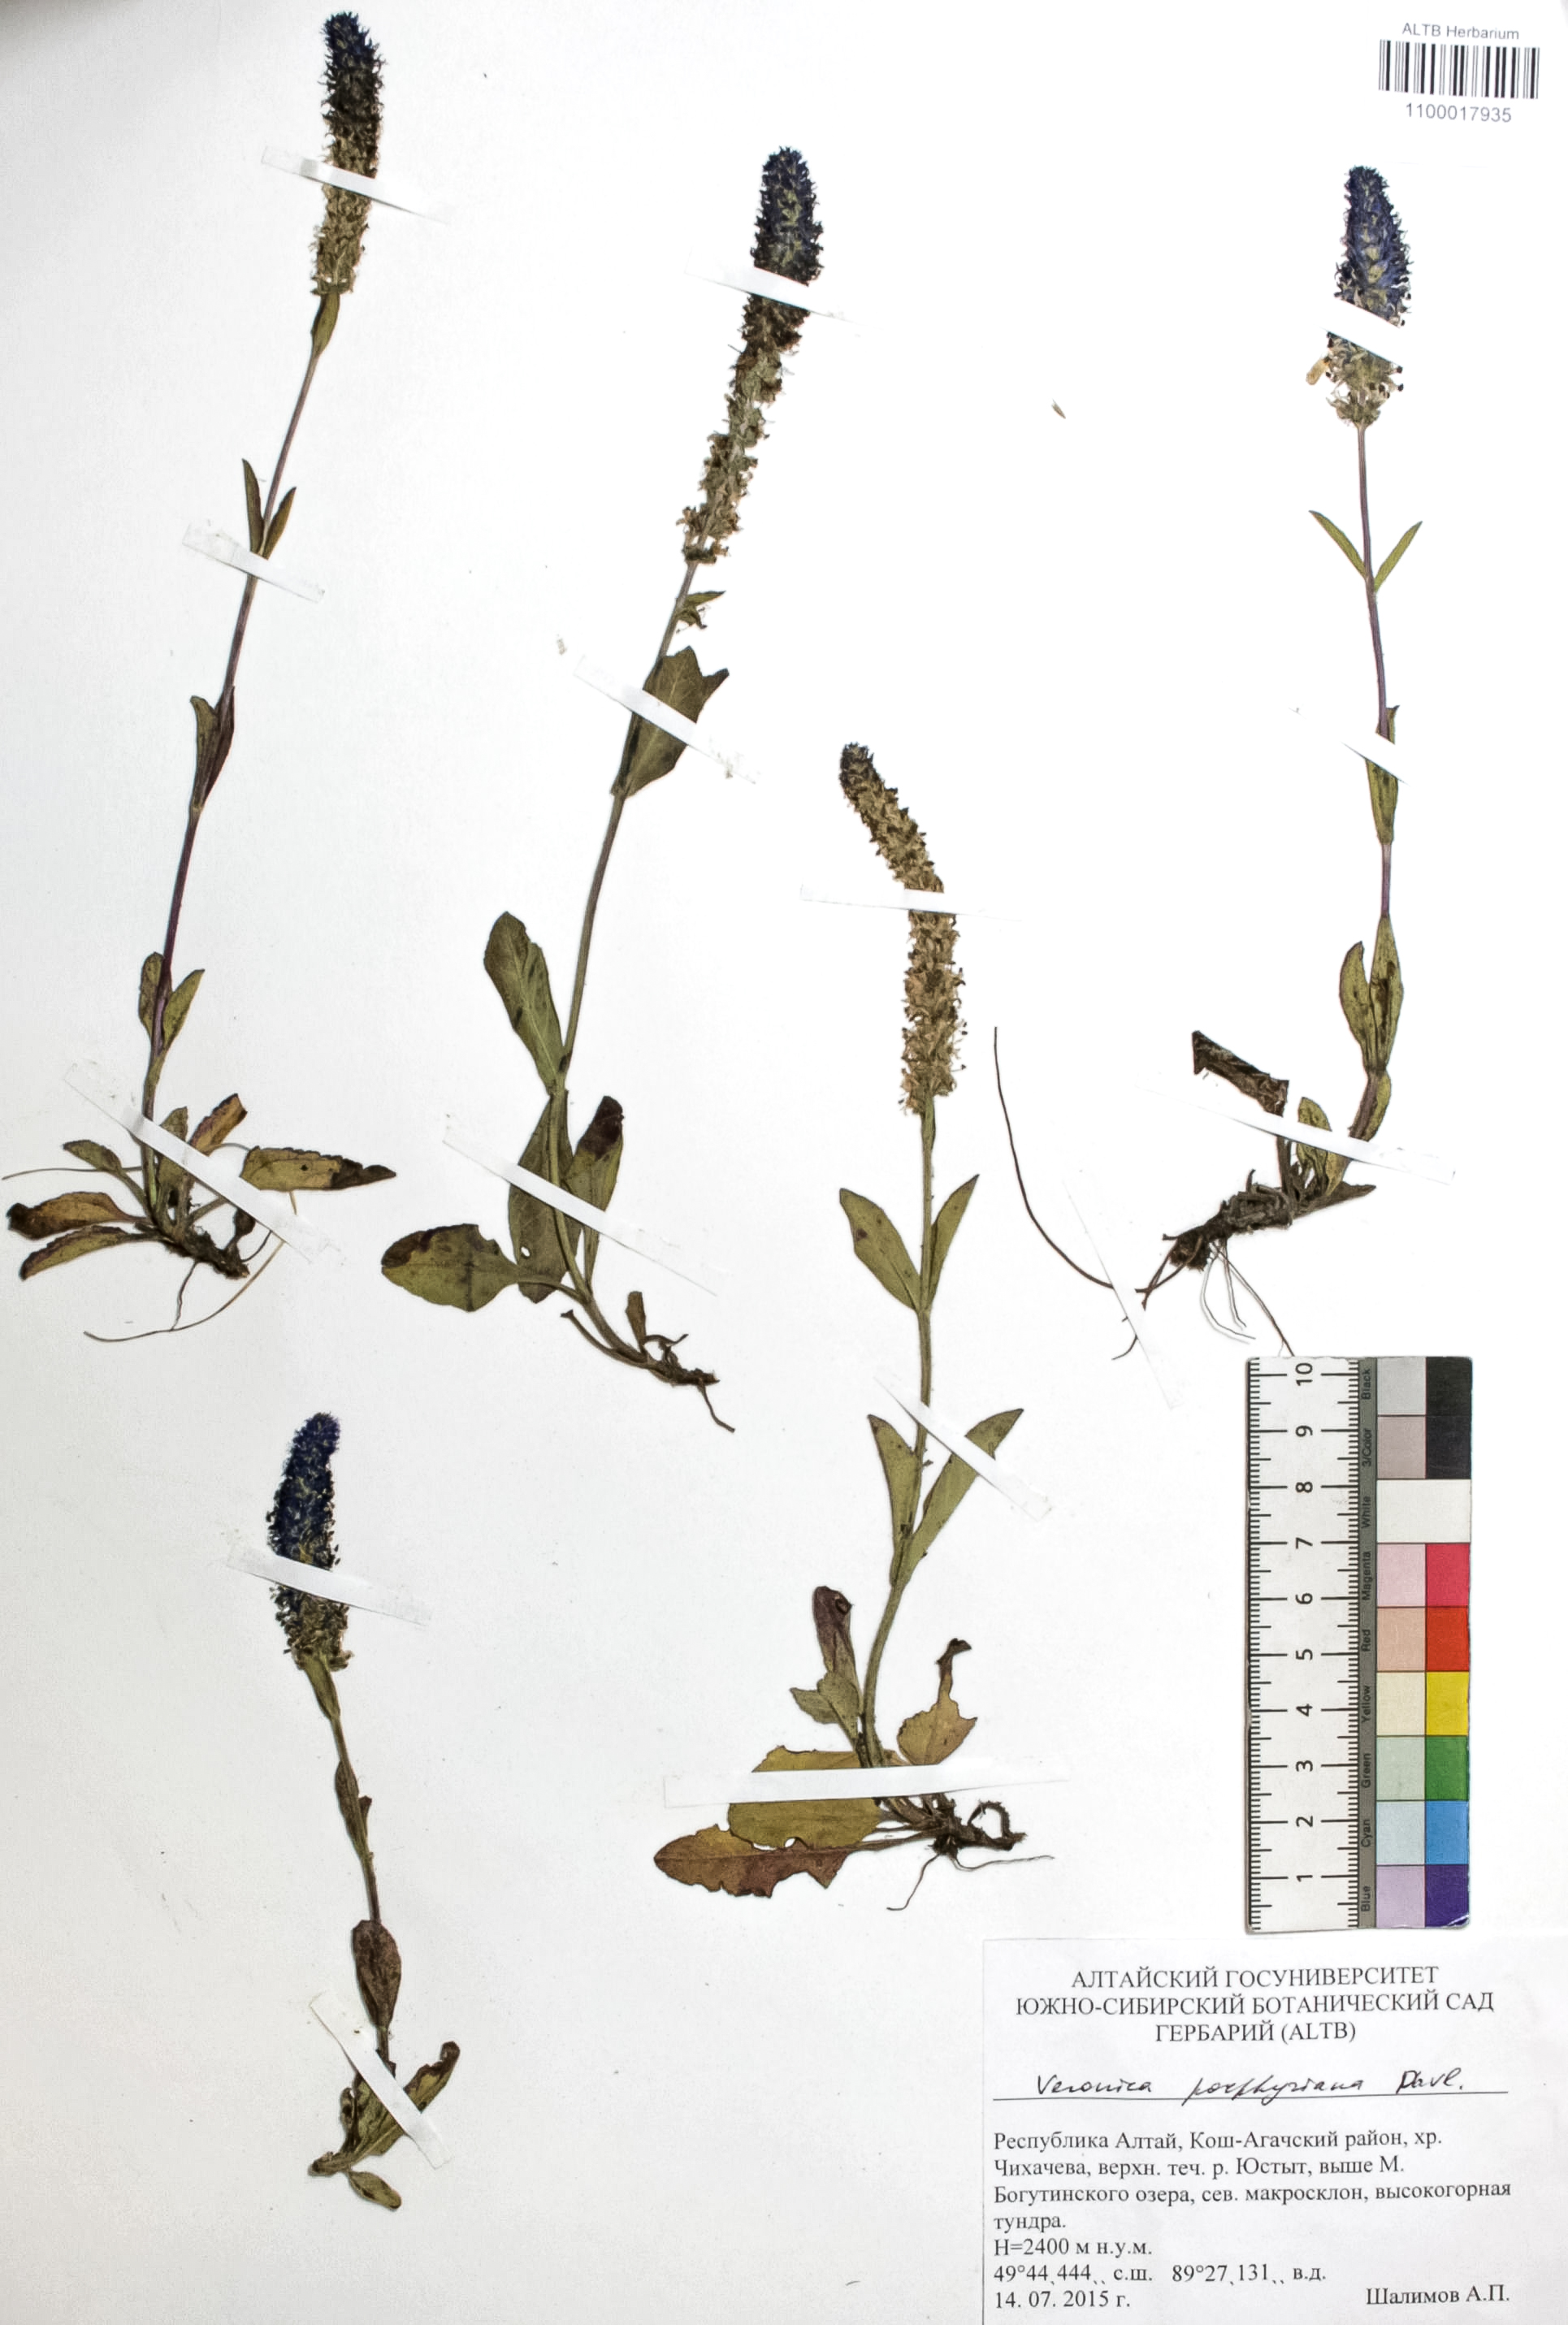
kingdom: Plantae
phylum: Tracheophyta
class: Magnoliopsida
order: Lamiales
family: Plantaginaceae
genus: Veronica
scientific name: Veronica porphyriana
